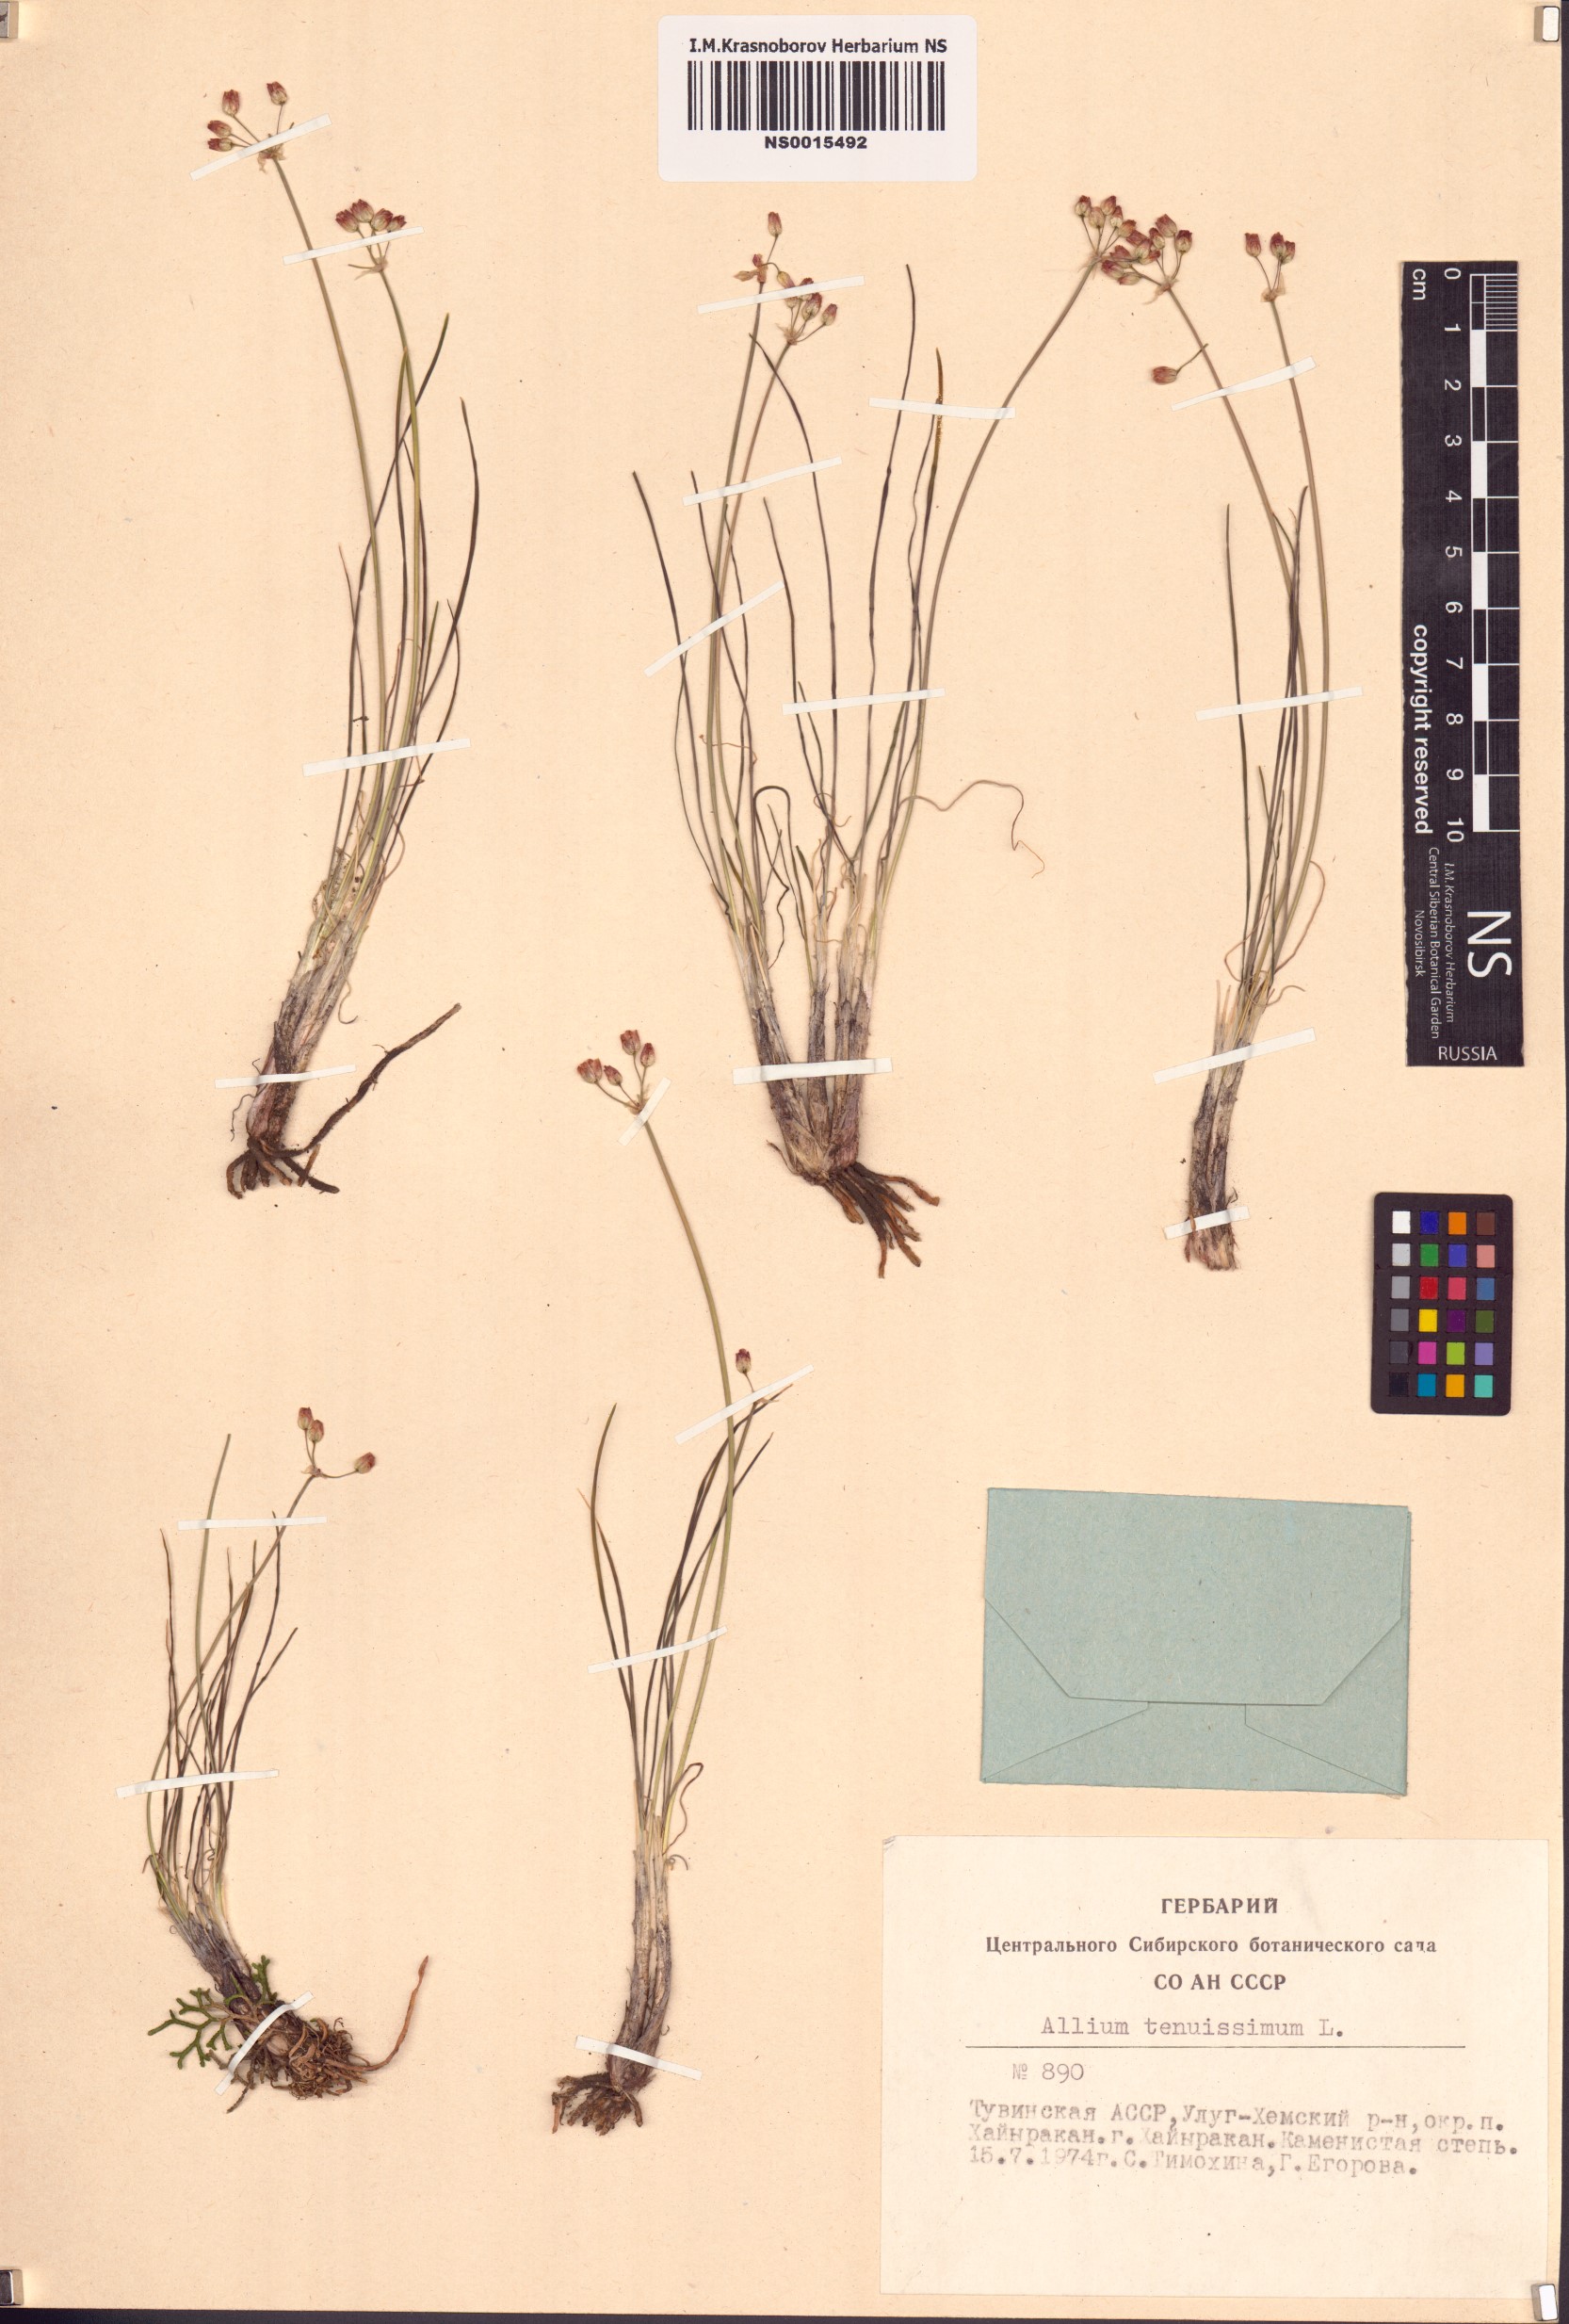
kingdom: Plantae
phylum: Tracheophyta
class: Liliopsida
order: Asparagales
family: Amaryllidaceae
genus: Allium
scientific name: Allium tenuissimum
